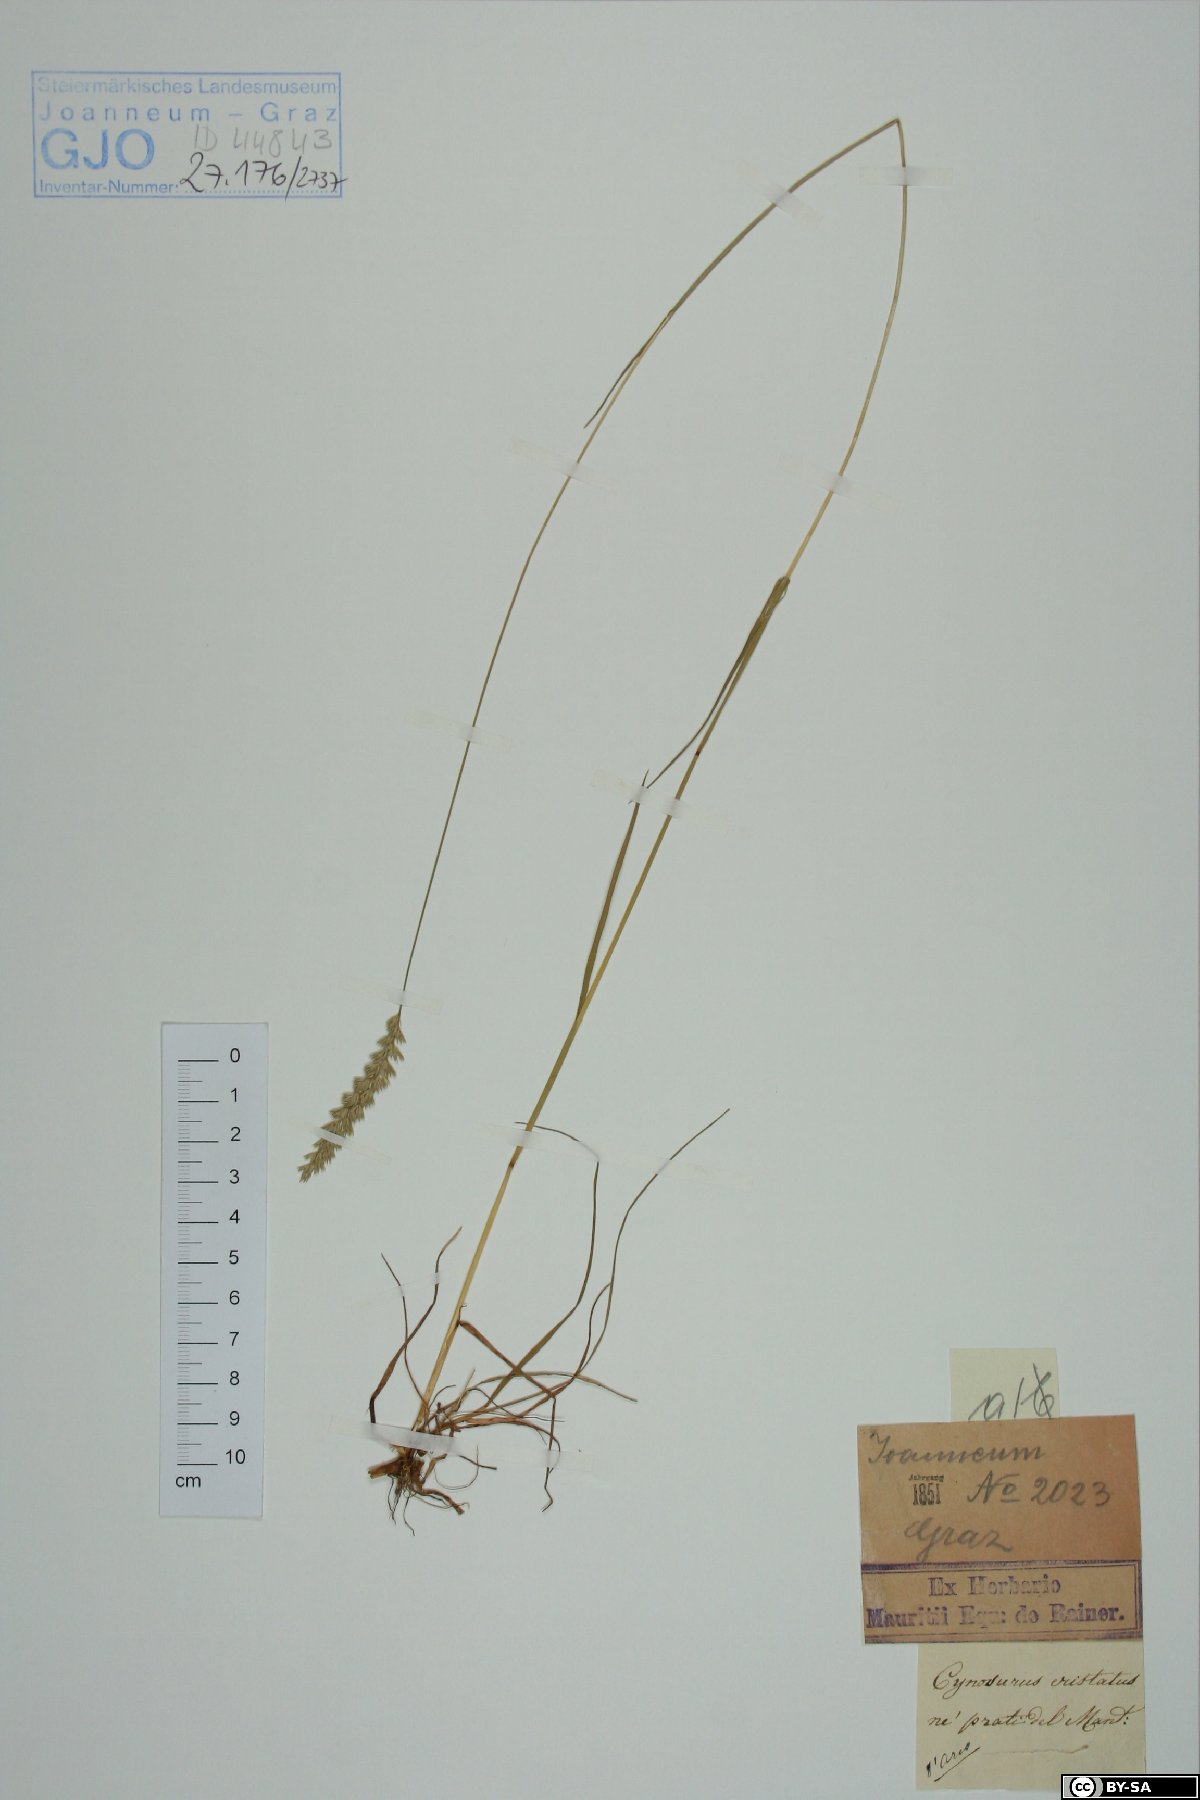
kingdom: Plantae
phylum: Tracheophyta
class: Liliopsida
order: Poales
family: Poaceae
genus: Cynosurus
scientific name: Cynosurus cristatus
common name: Crested dog's-tail
